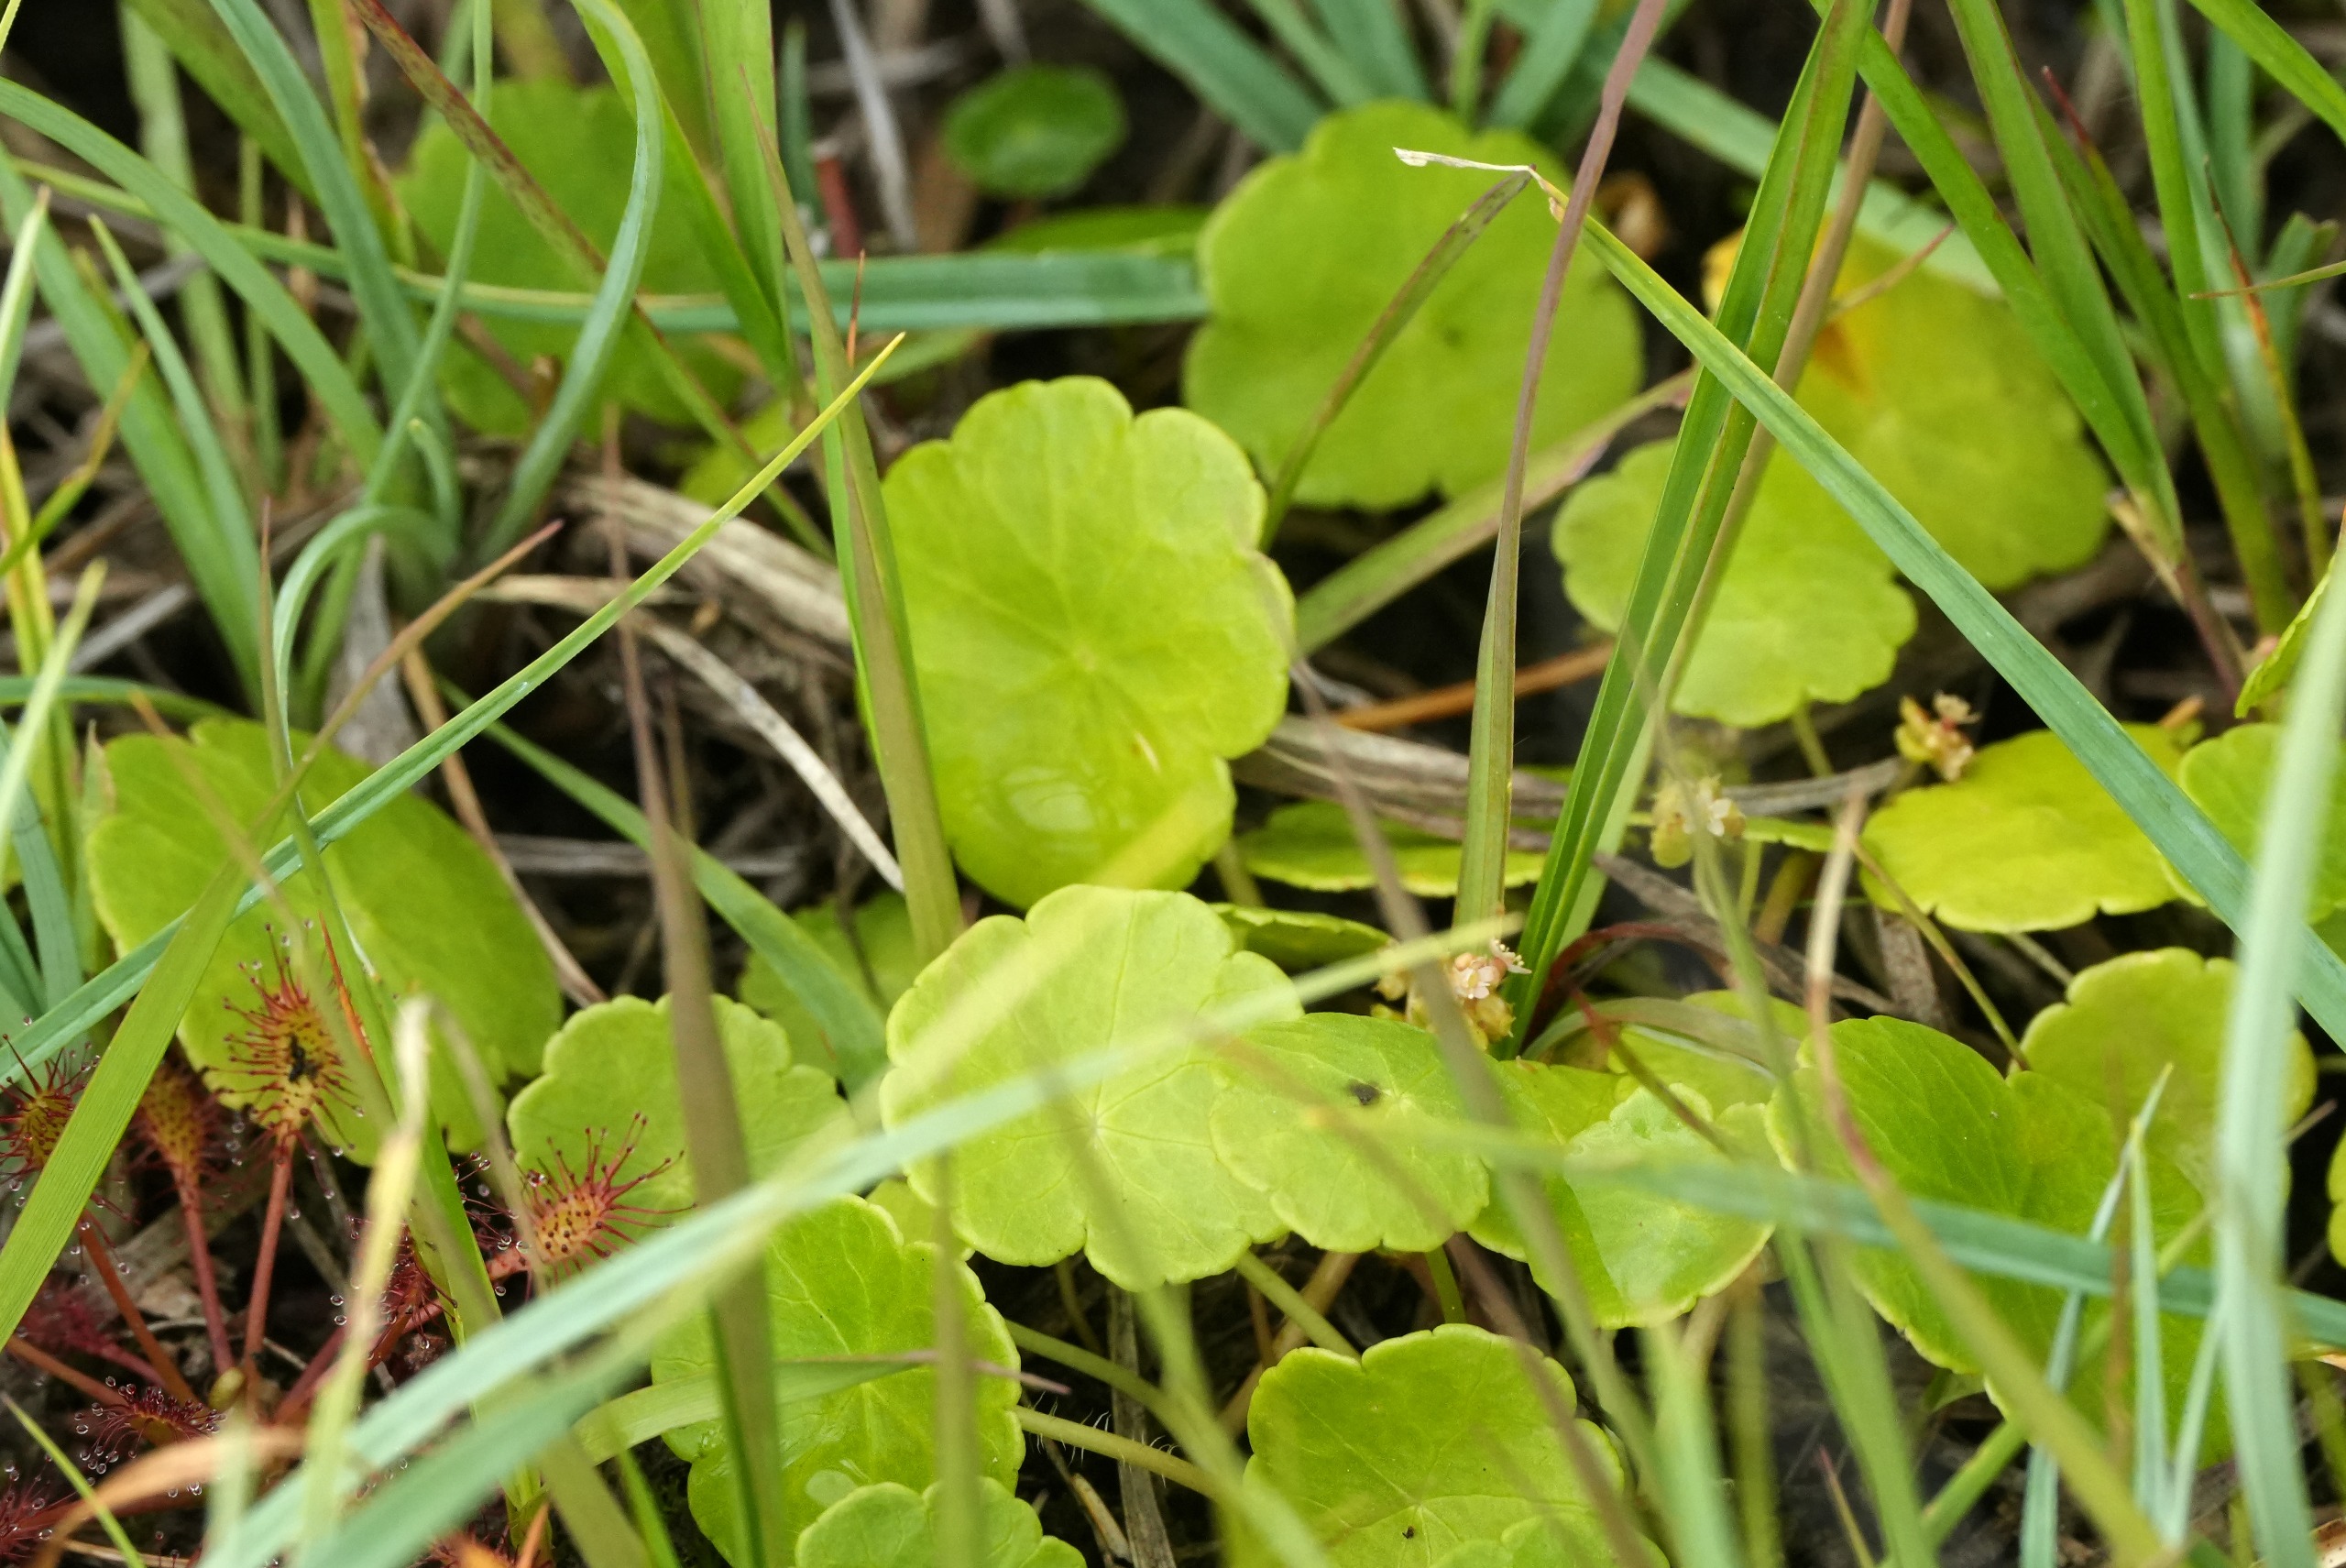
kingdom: Plantae
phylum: Tracheophyta
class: Magnoliopsida
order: Apiales
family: Araliaceae
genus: Hydrocotyle
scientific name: Hydrocotyle vulgaris
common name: Vandnavle
